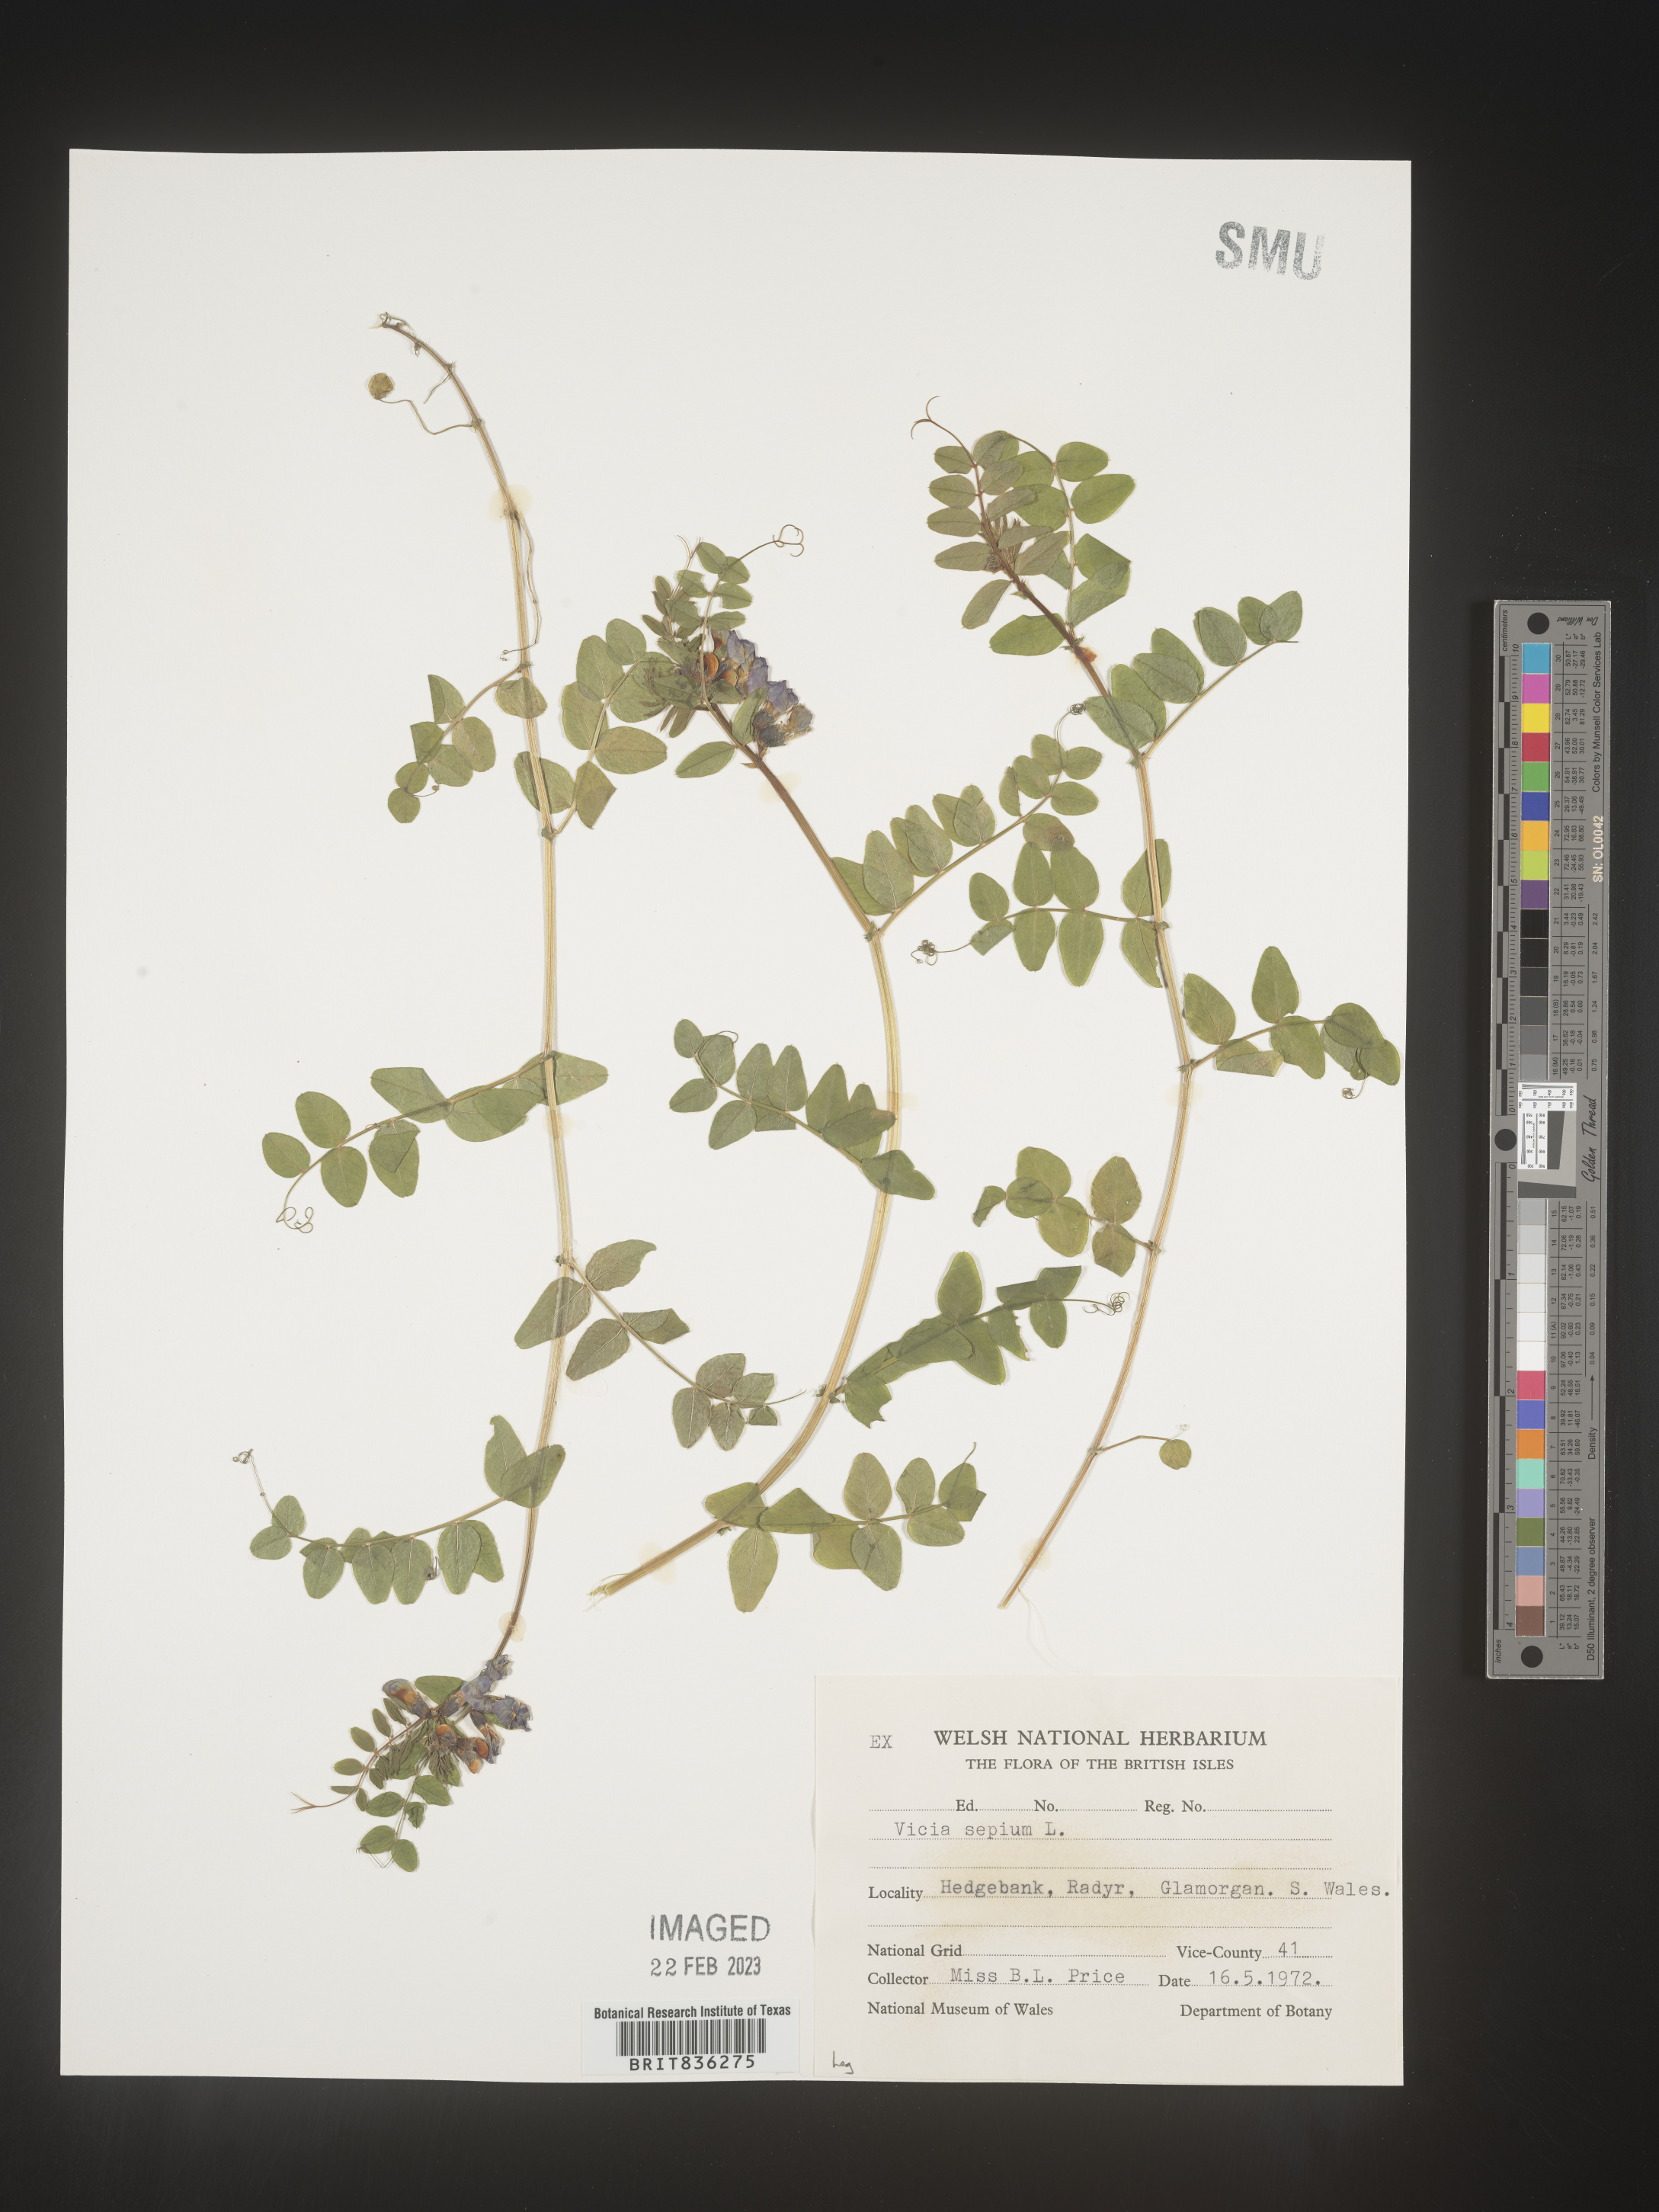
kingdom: Plantae
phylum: Tracheophyta
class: Magnoliopsida
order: Fabales
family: Fabaceae
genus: Vicia
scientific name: Vicia
